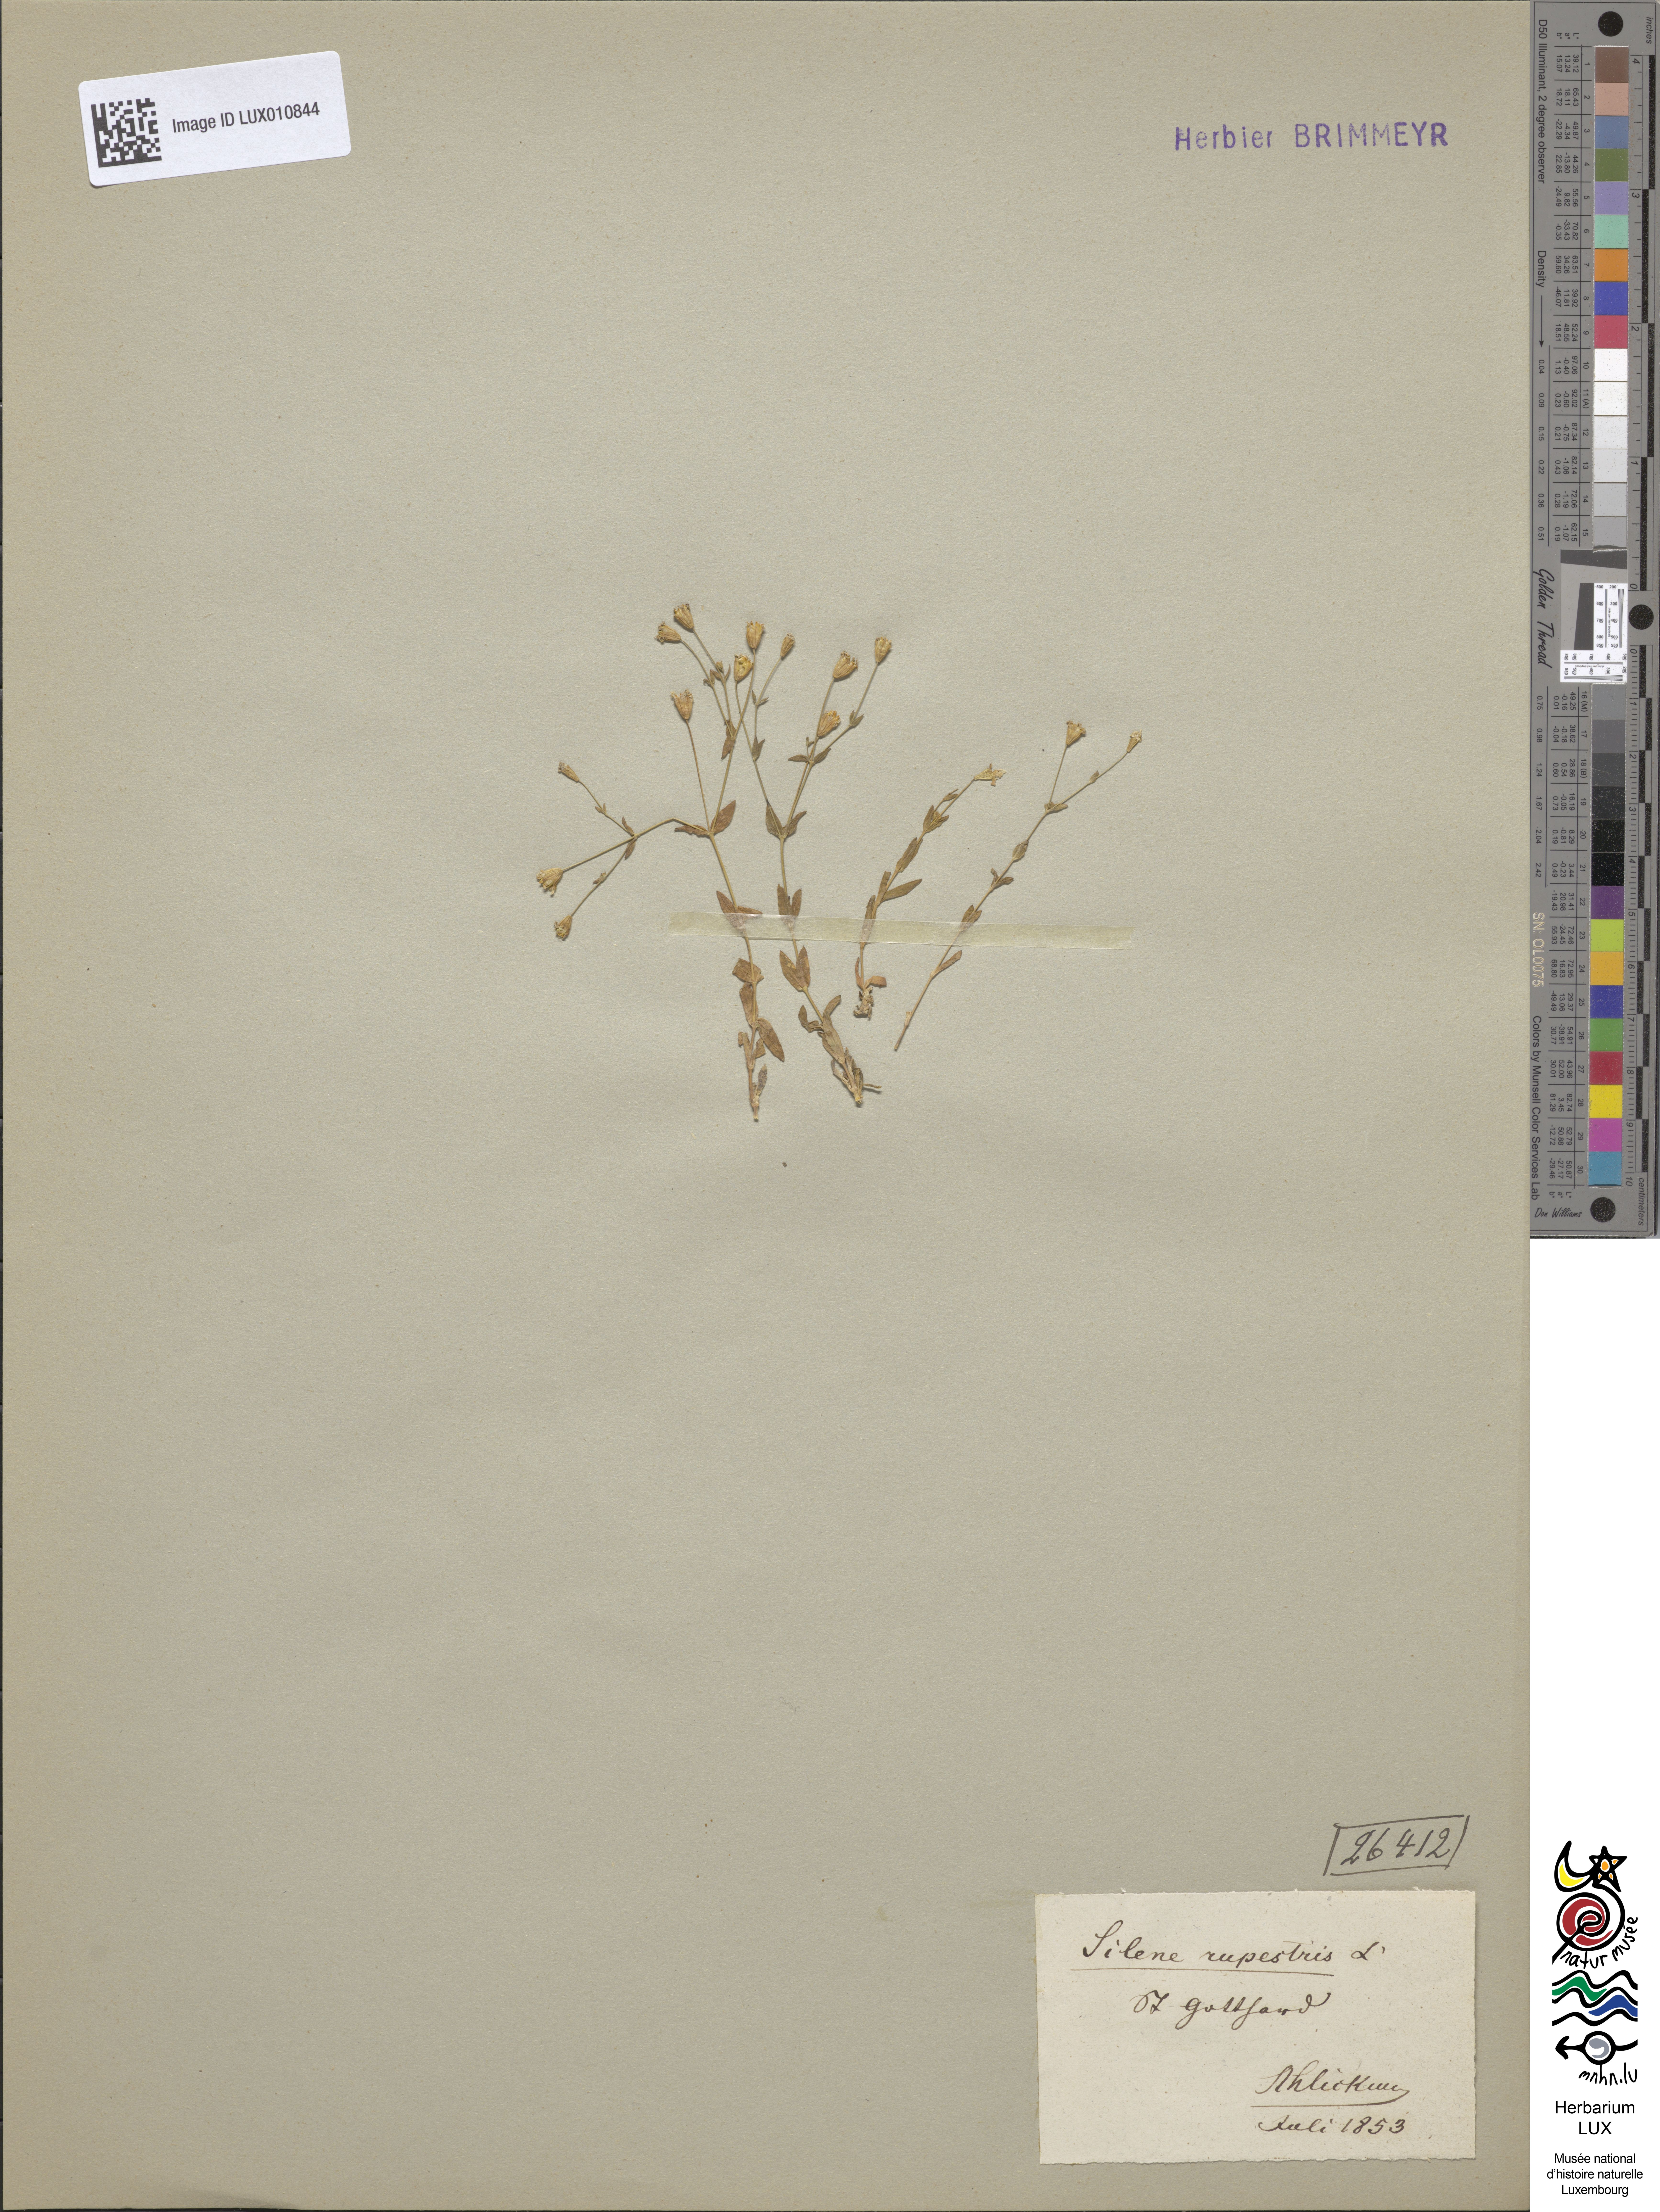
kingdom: Plantae
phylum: Tracheophyta
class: Magnoliopsida
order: Caryophyllales
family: Caryophyllaceae
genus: Atocion
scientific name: Atocion rupestre
